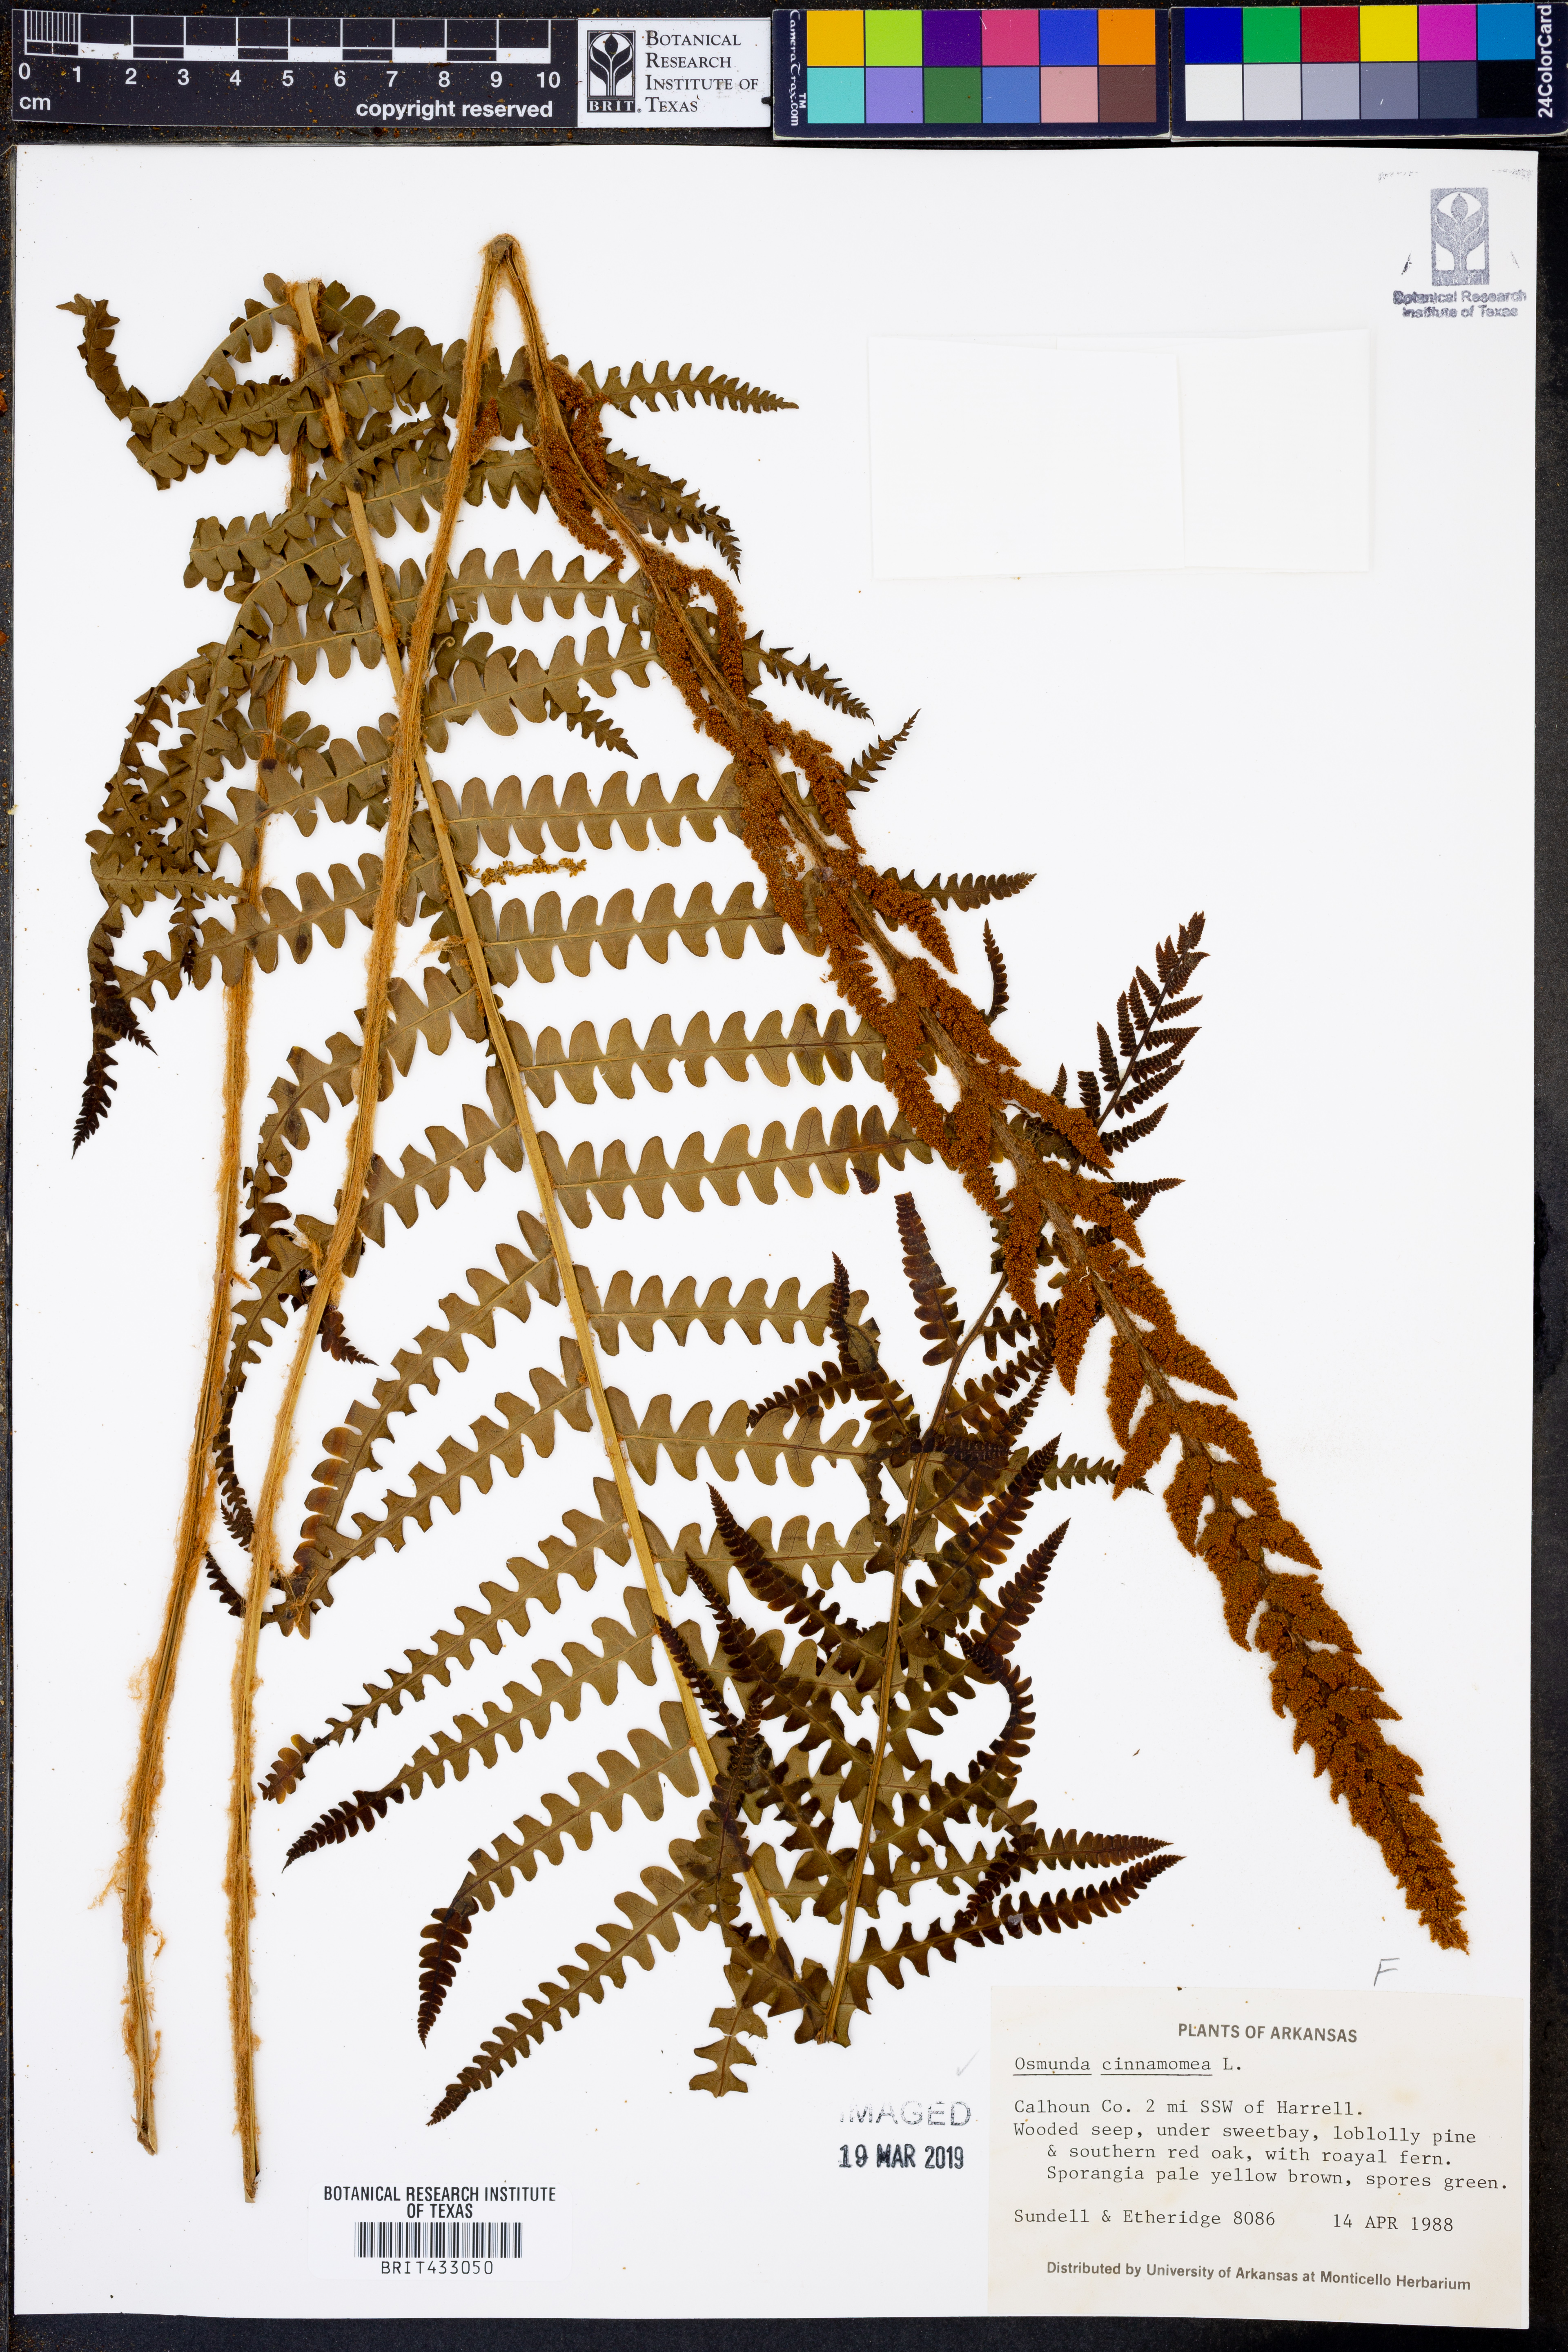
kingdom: Plantae
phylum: Tracheophyta
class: Polypodiopsida
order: Osmundales
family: Osmundaceae
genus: Osmundastrum
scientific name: Osmundastrum cinnamomeum
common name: Cinnamon fern
